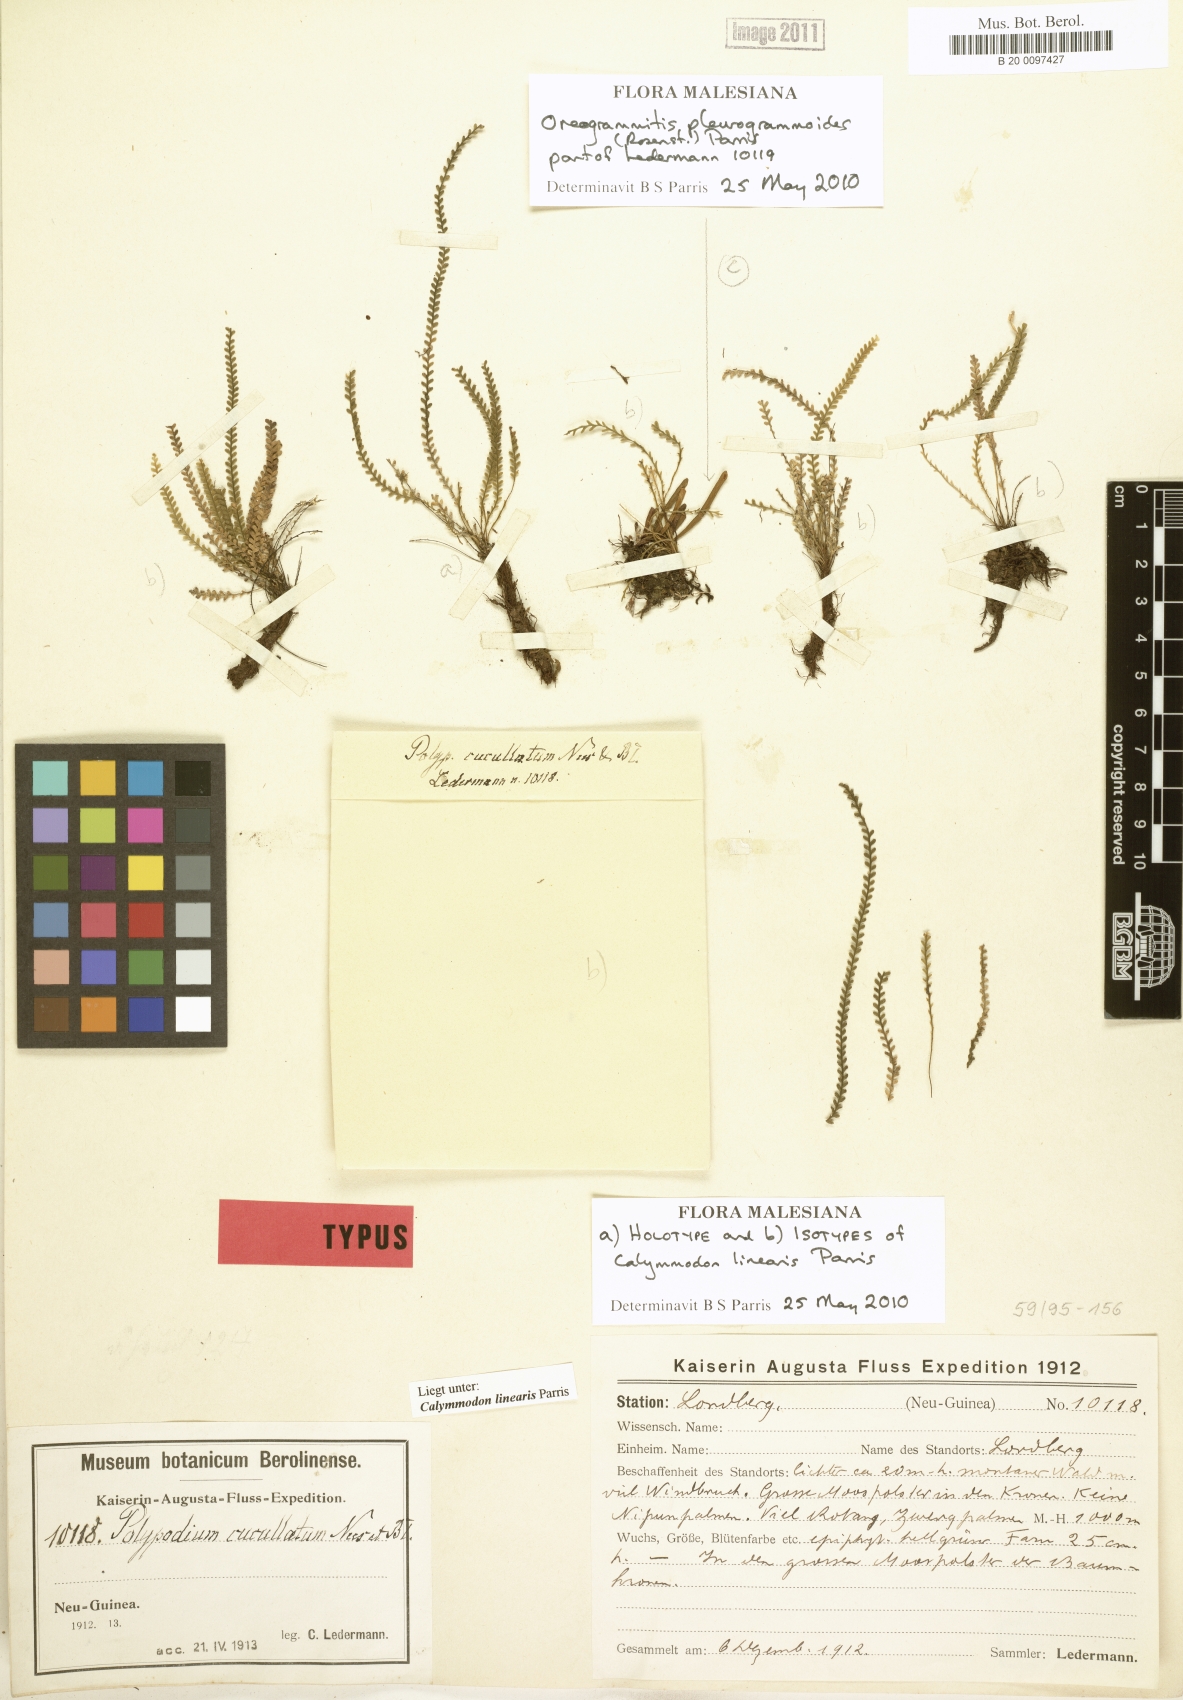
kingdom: Plantae
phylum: Tracheophyta
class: Polypodiopsida
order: Polypodiales
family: Polypodiaceae
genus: Calymmodon
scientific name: Calymmodon linearis
